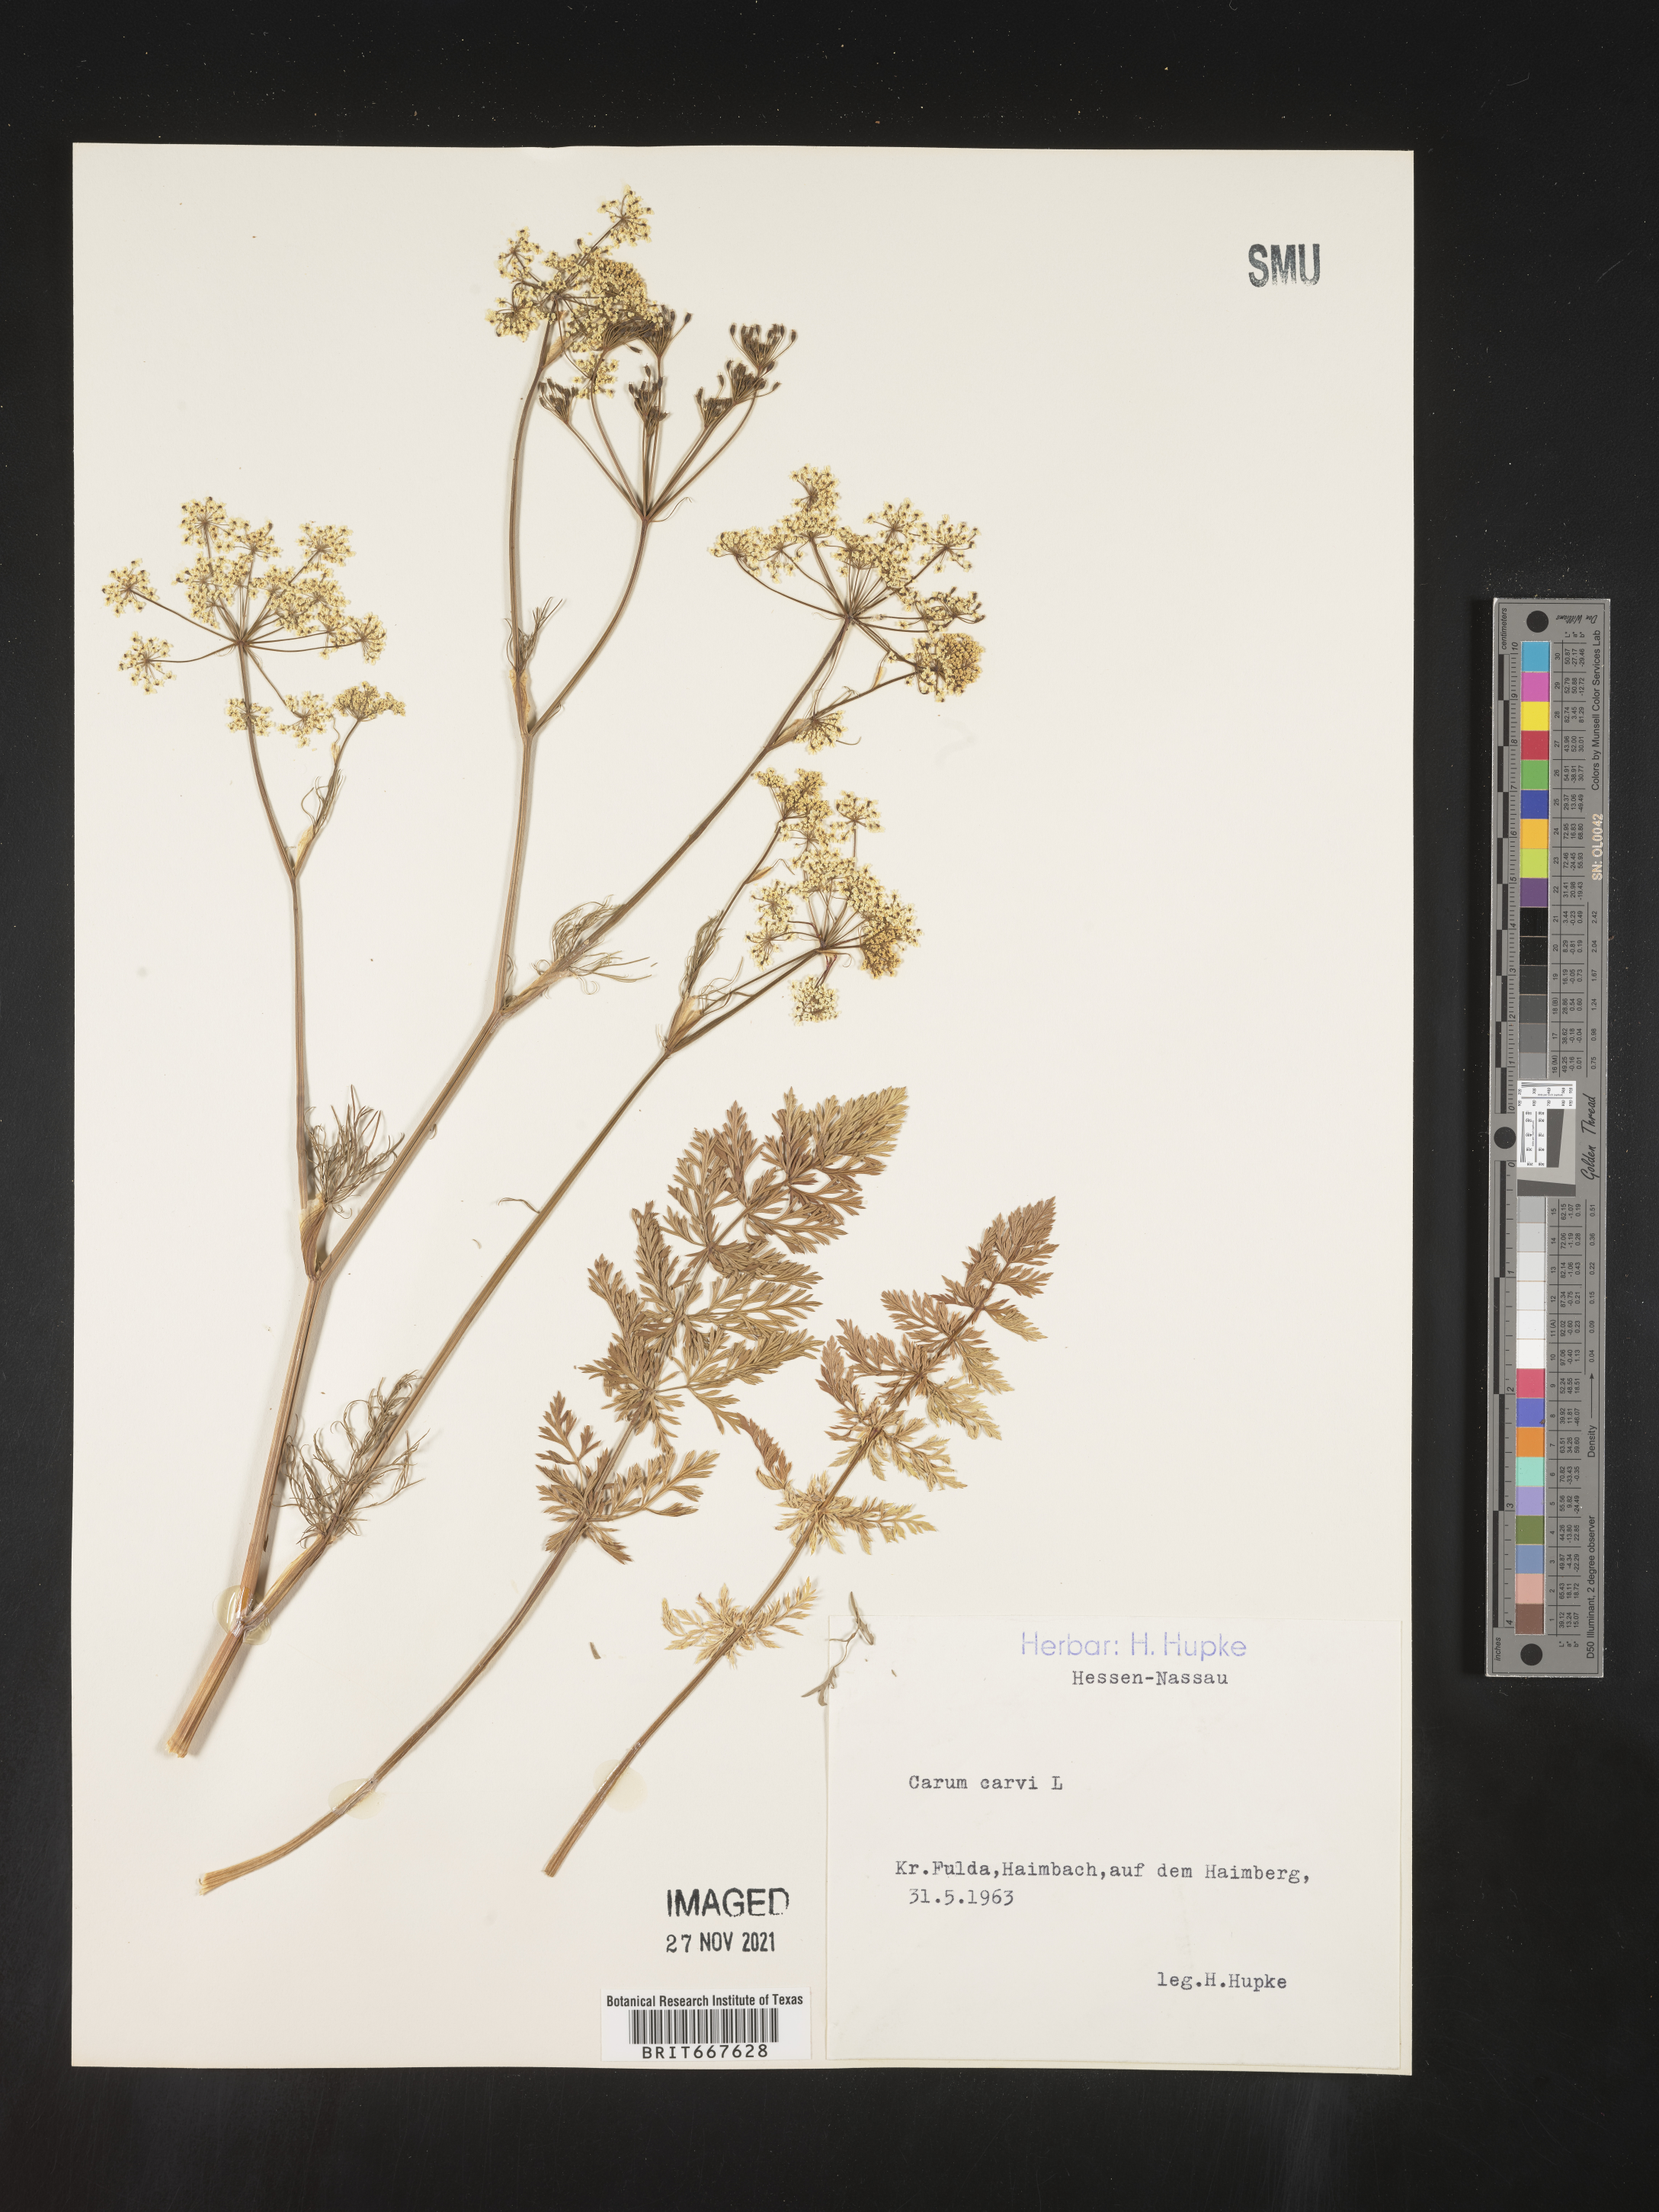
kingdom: Plantae
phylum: Tracheophyta
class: Magnoliopsida
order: Apiales
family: Apiaceae
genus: Carum
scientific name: Carum
